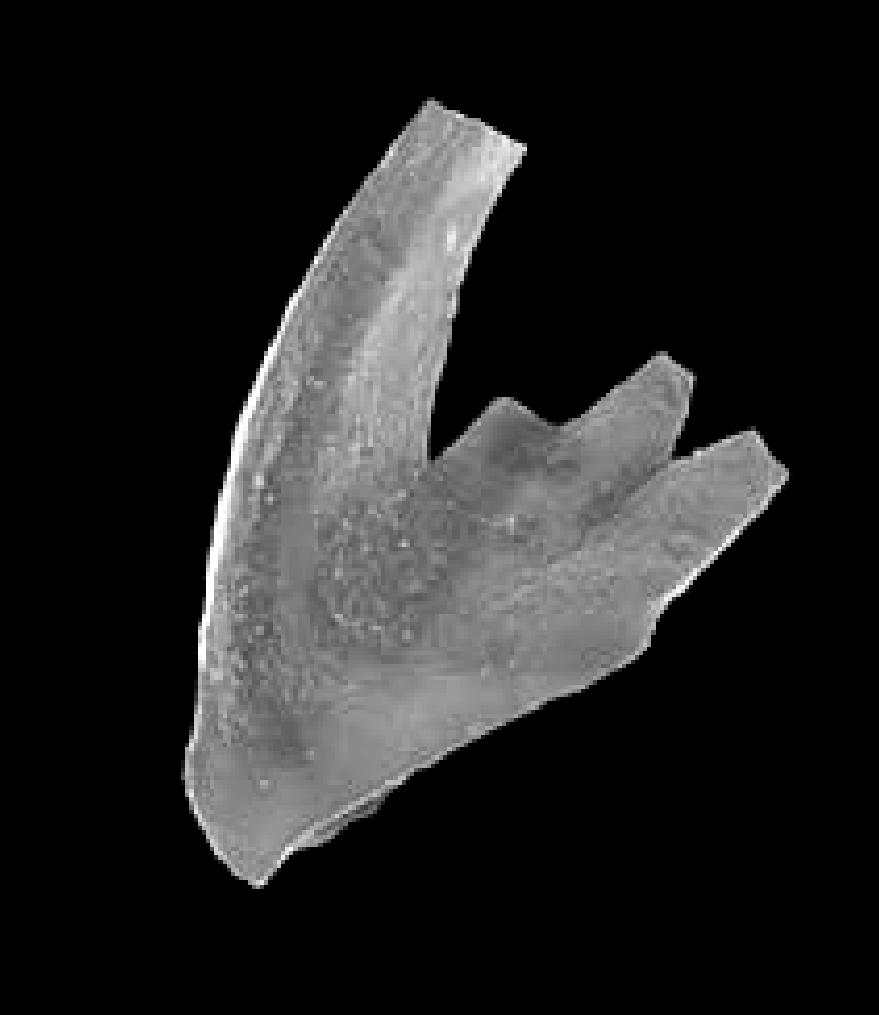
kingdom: Animalia
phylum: Chordata
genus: Periodon
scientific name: Periodon
